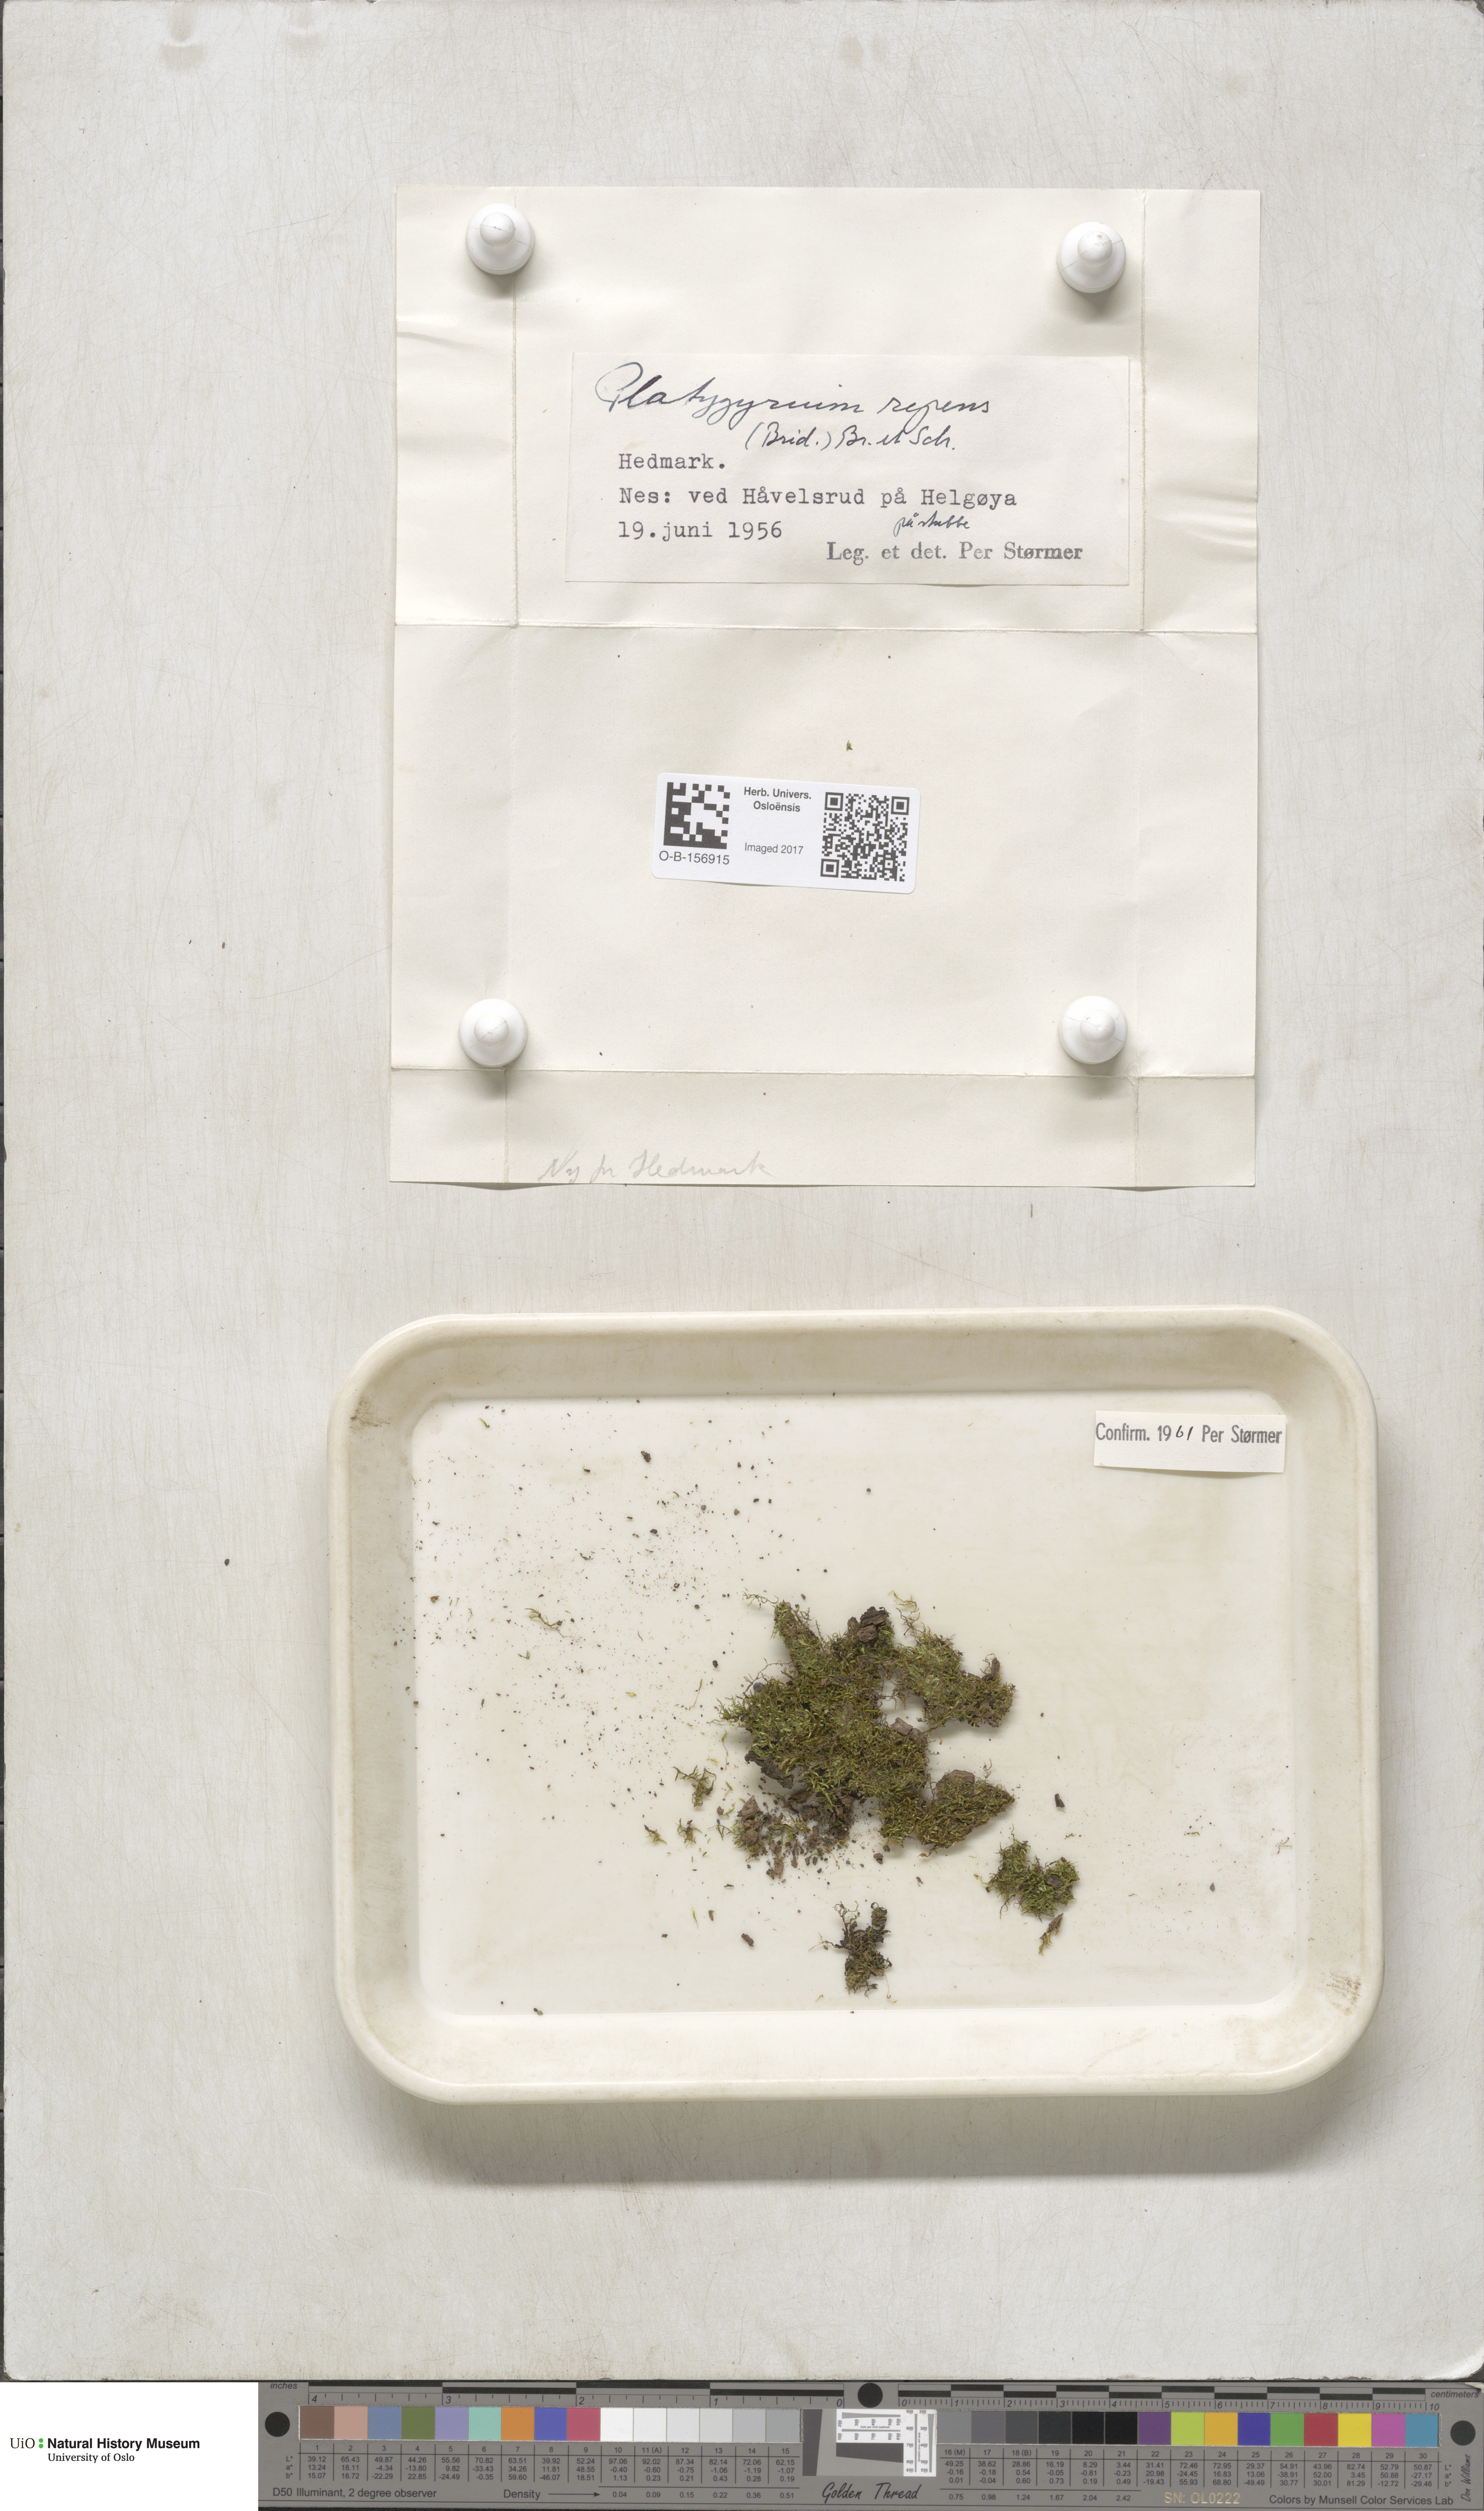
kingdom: Plantae
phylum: Bryophyta
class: Bryopsida
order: Hypnales
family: Pylaisiadelphaceae
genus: Platygyrium
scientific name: Platygyrium repens
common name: Flat-brocade moss
